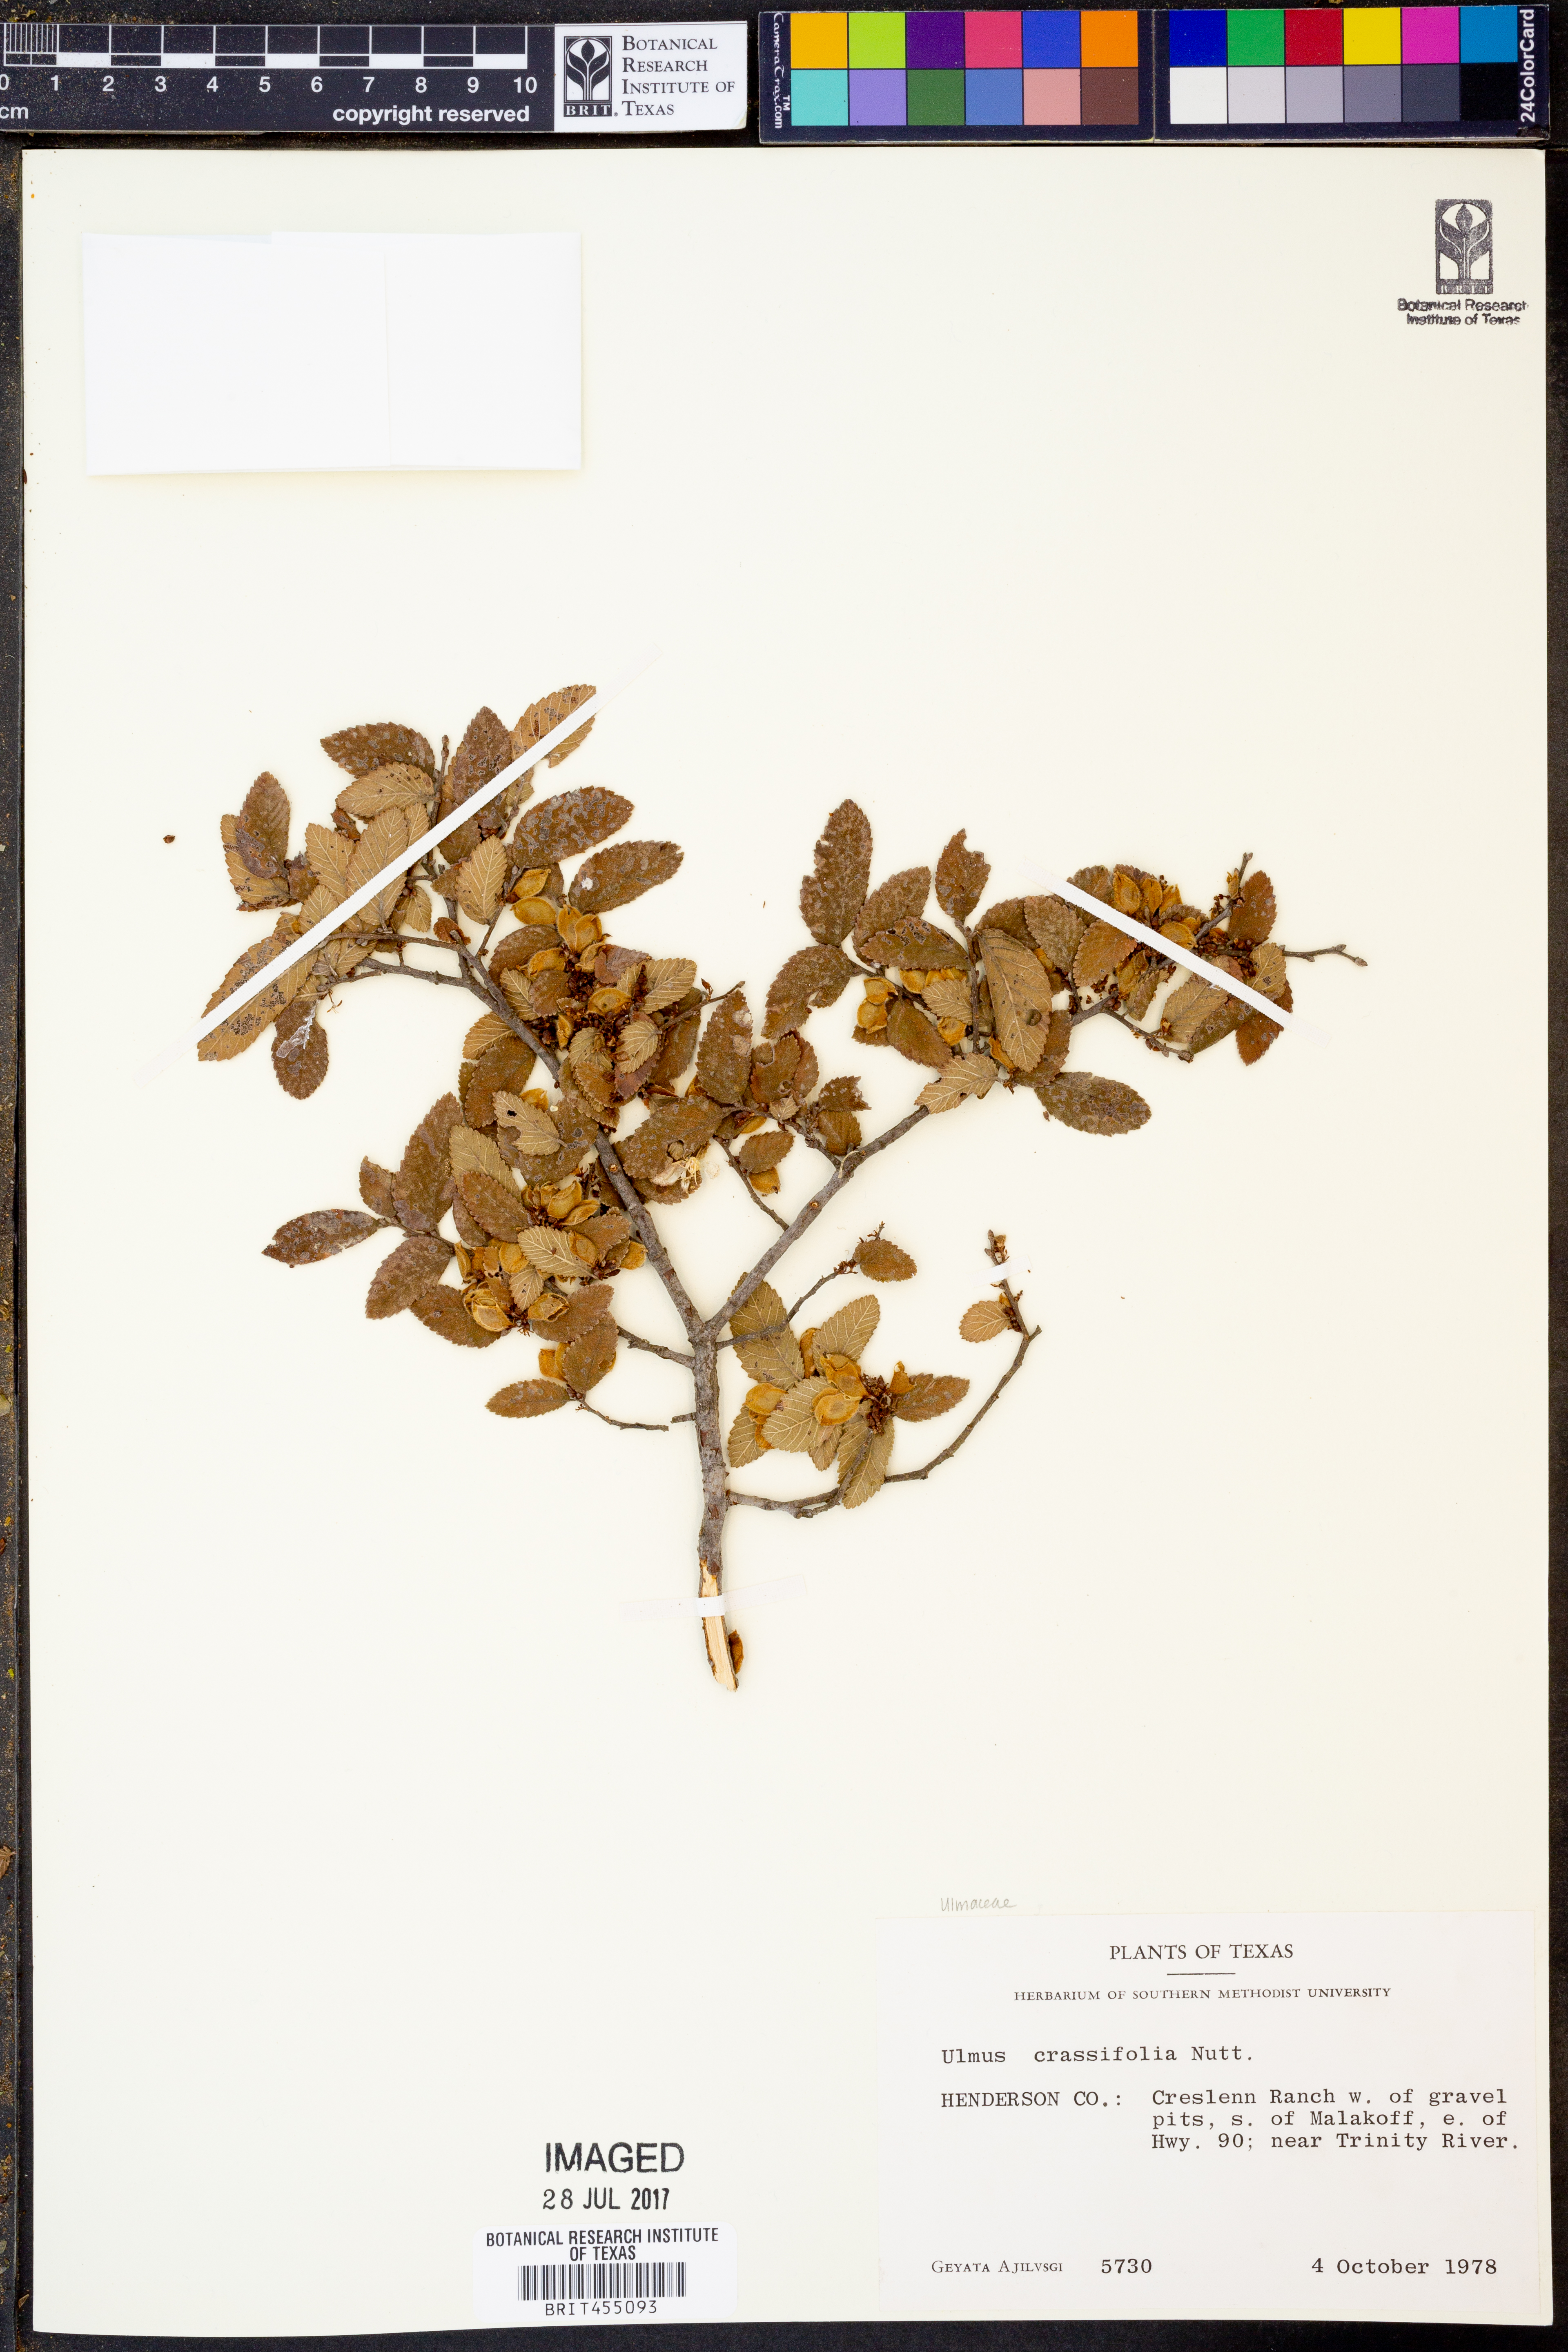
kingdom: Plantae
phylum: Tracheophyta
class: Magnoliopsida
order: Rosales
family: Ulmaceae
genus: Ulmus
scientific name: Ulmus crassifolia
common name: Basket elm
